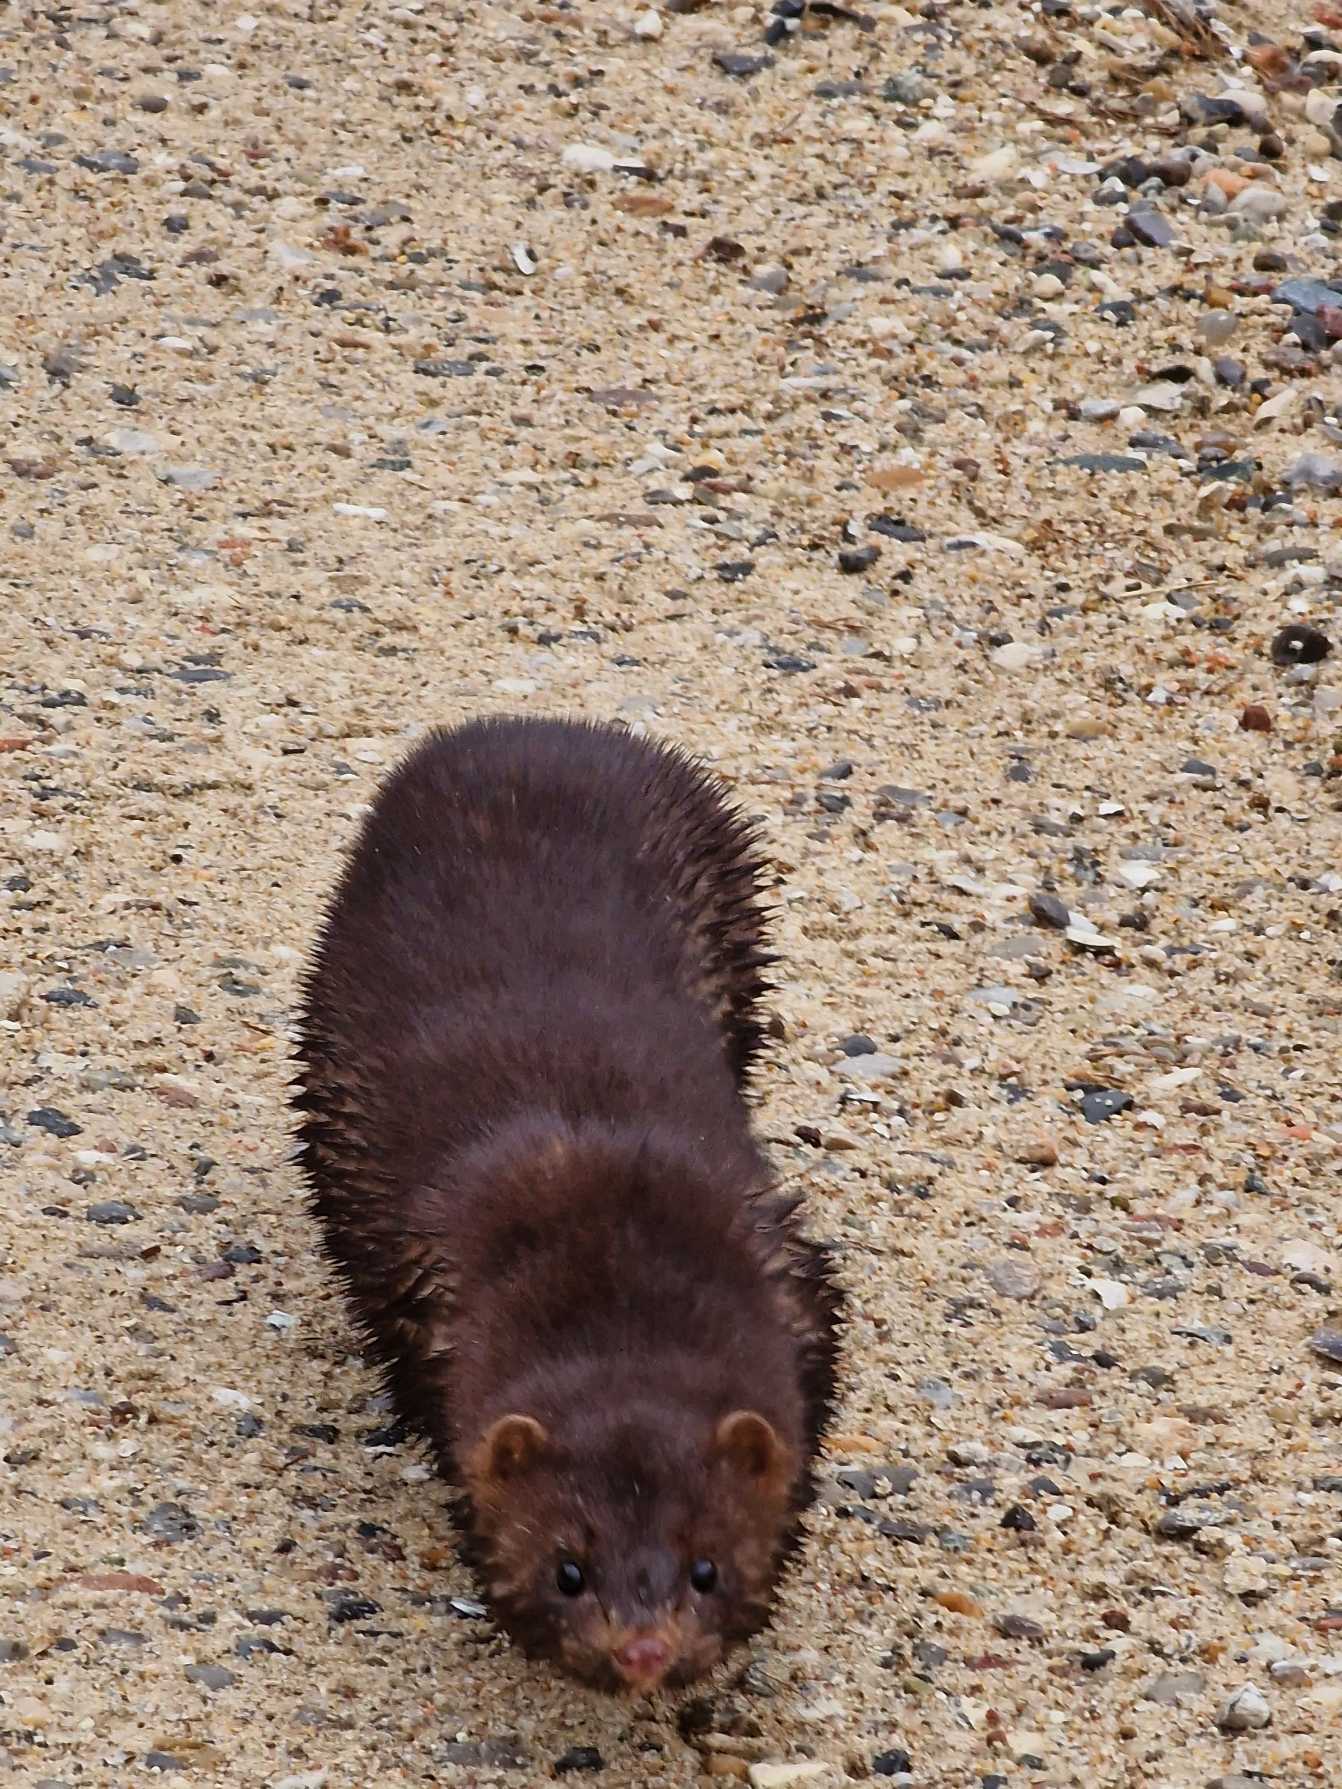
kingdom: Animalia
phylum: Chordata
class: Mammalia
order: Carnivora
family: Mustelidae
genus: Mustela
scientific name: Mustela vison
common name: Mink
